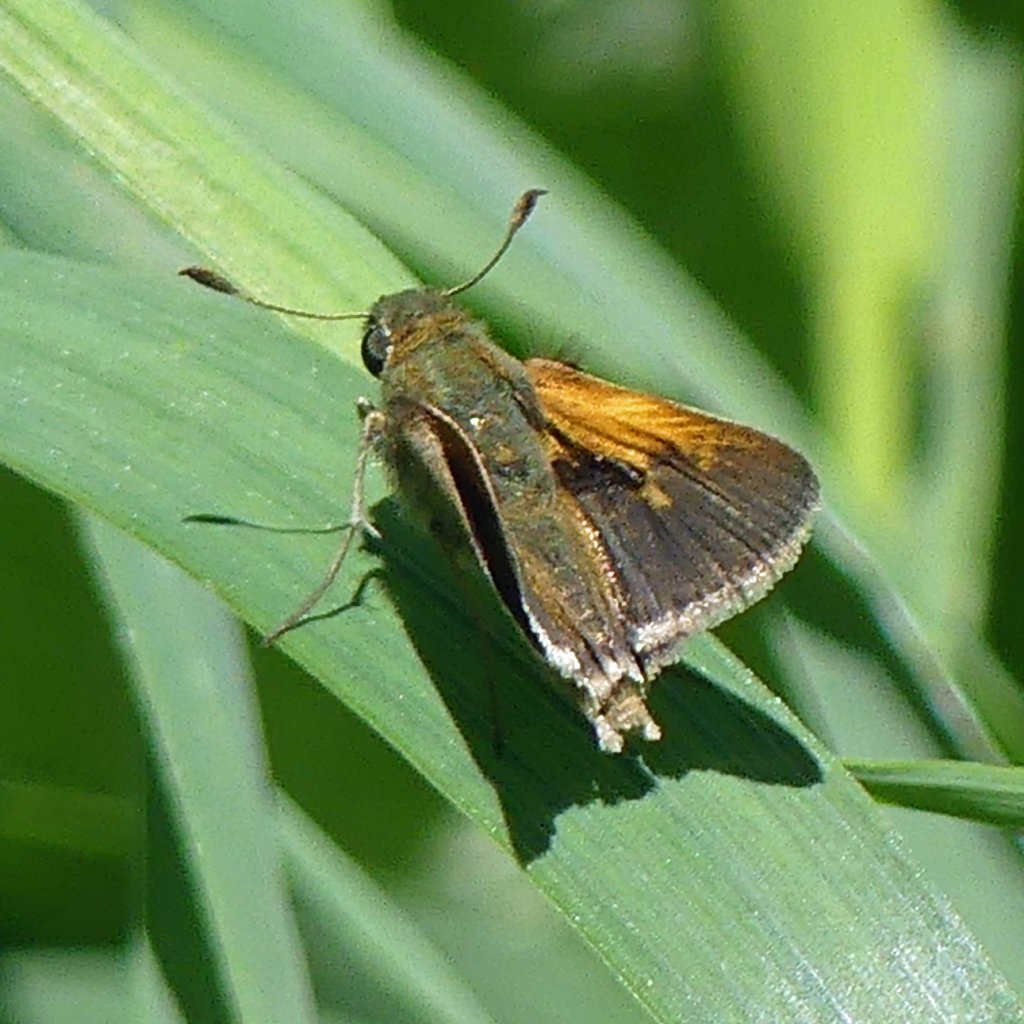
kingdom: Animalia
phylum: Arthropoda
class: Insecta
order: Lepidoptera
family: Hesperiidae
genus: Polites
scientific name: Polites themistocles
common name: Tawny-edged Skipper
